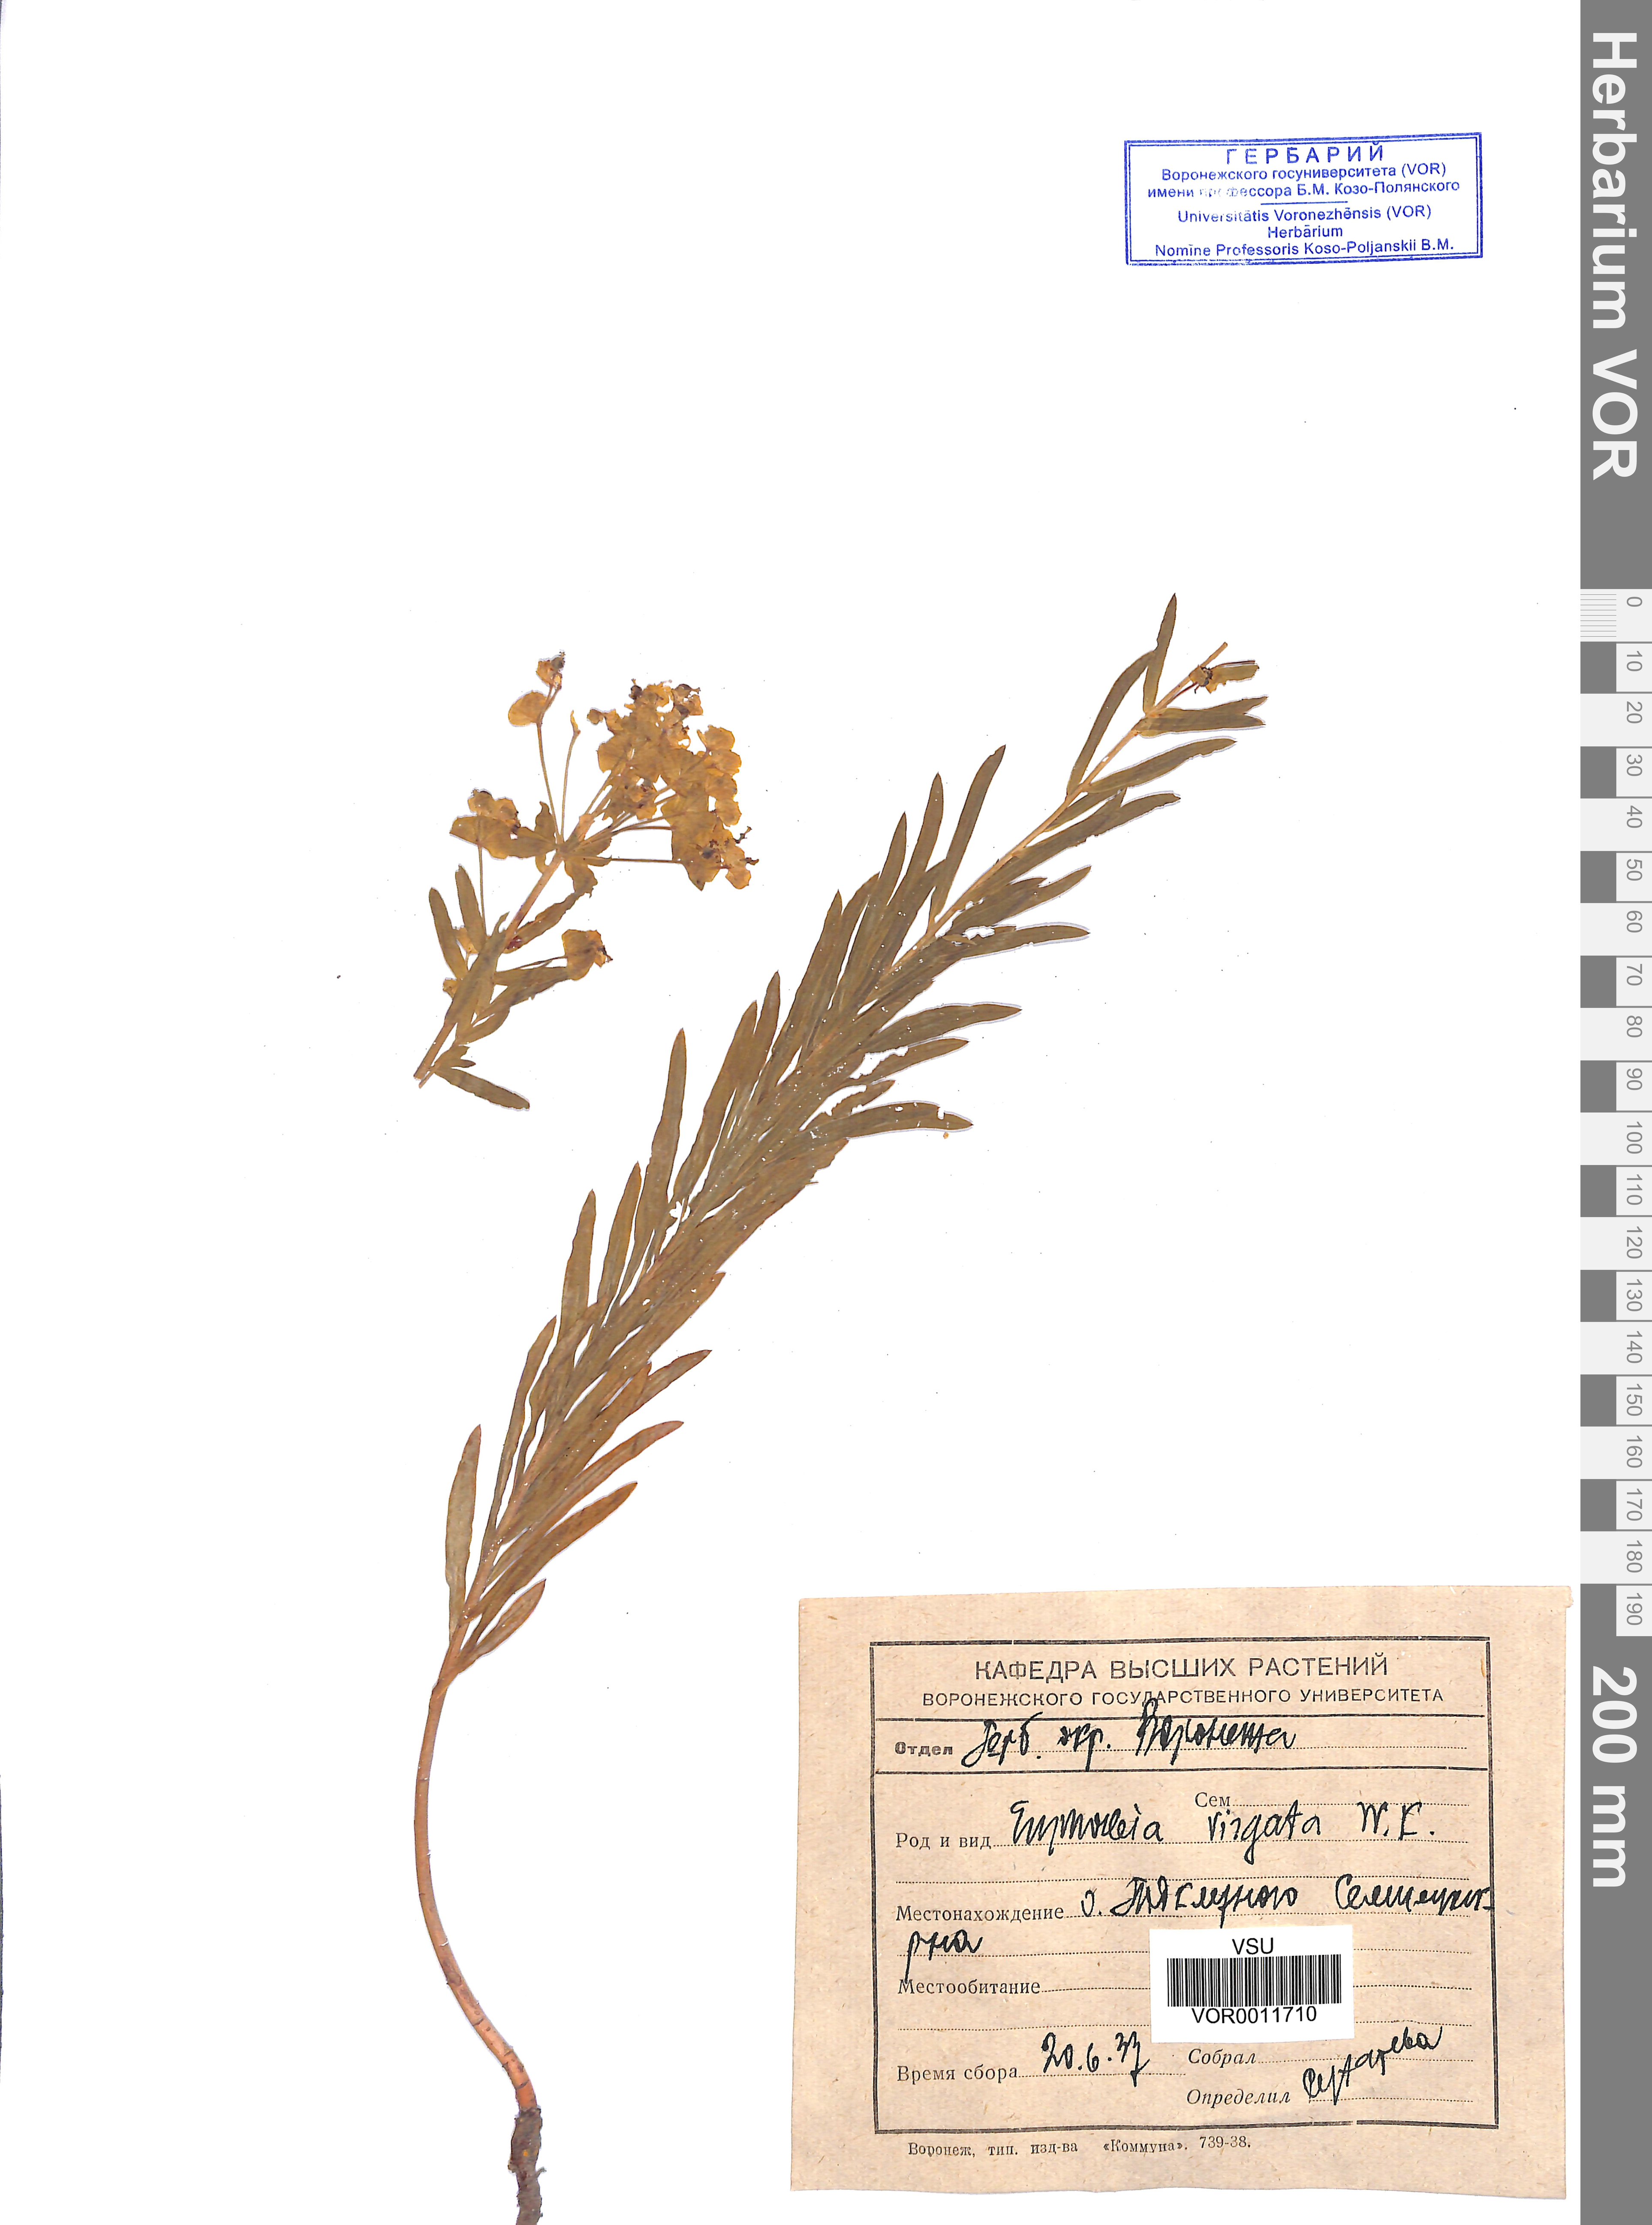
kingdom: Plantae
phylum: Tracheophyta
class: Magnoliopsida
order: Malpighiales
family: Euphorbiaceae
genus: Euphorbia
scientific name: Euphorbia virgata
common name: Leafy spurge
